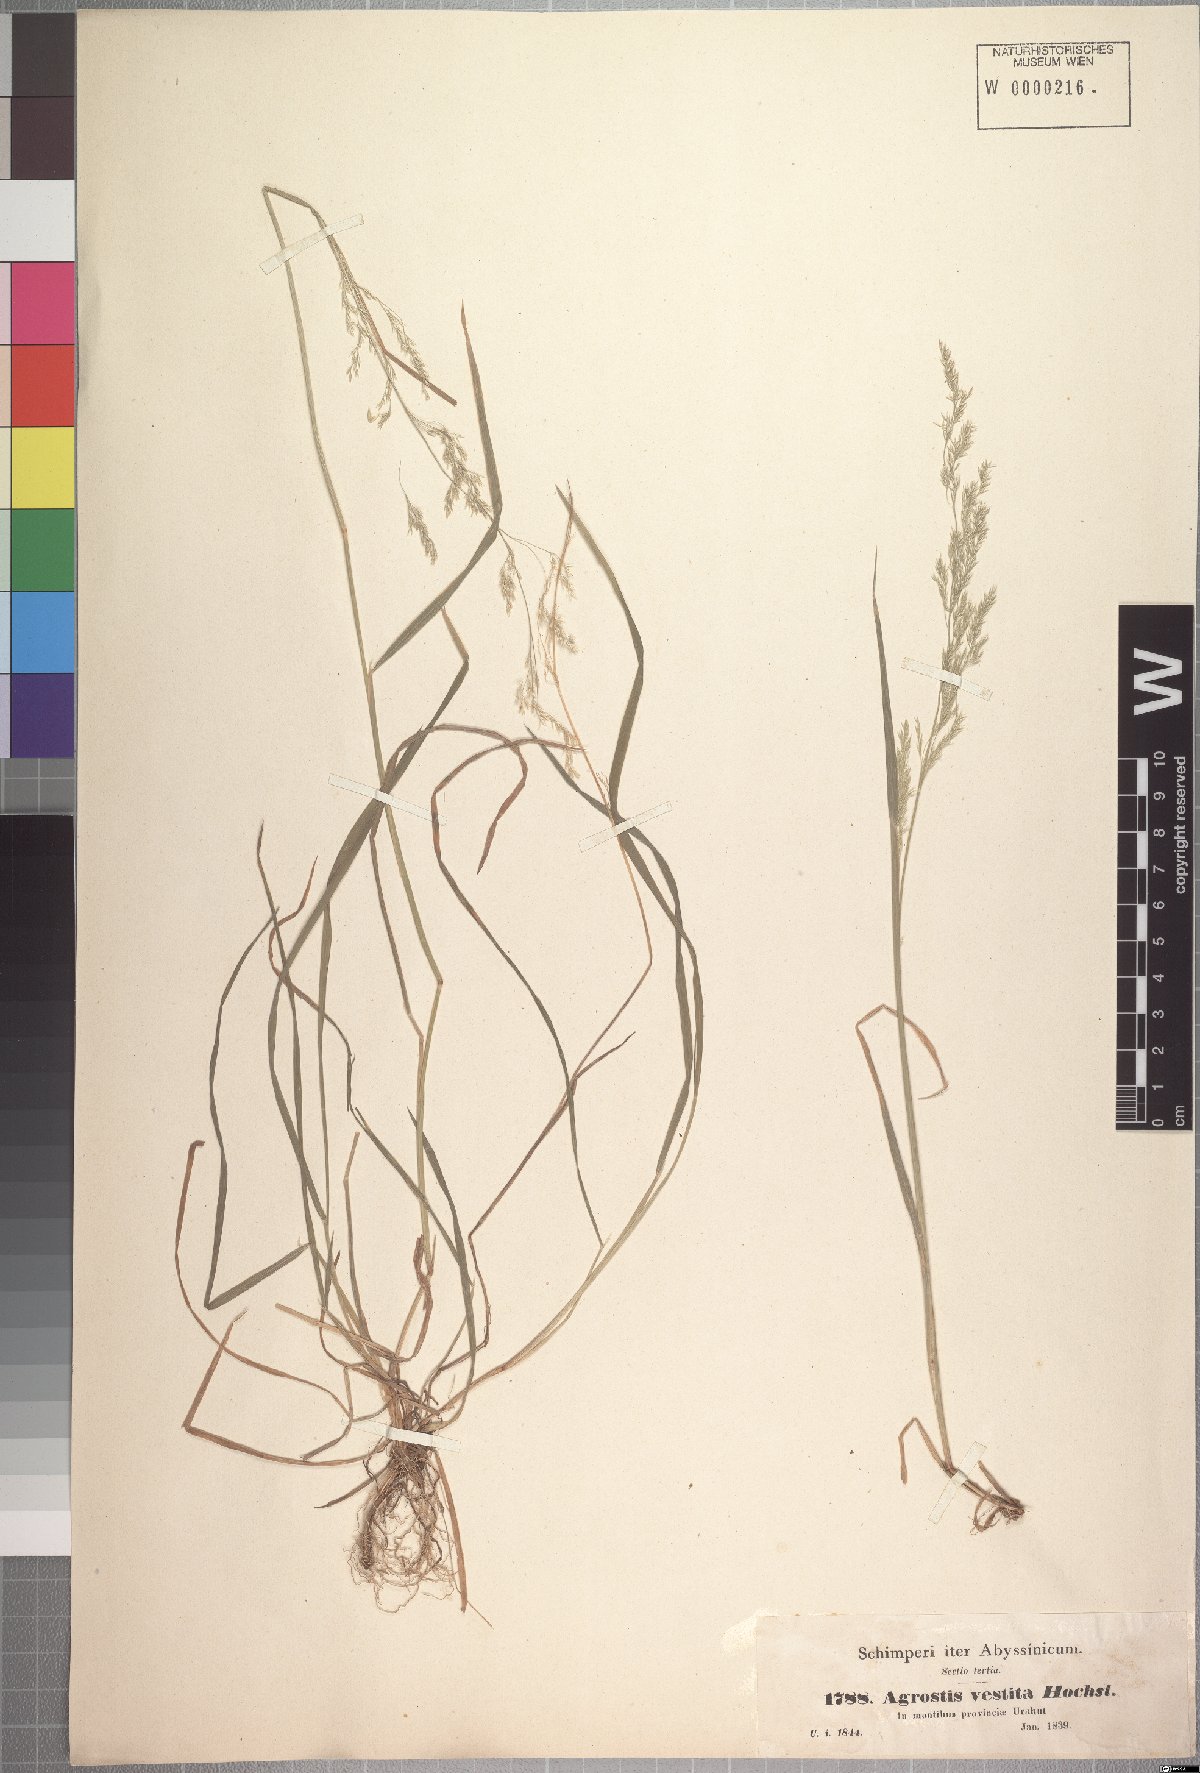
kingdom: Plantae
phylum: Tracheophyta
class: Liliopsida
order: Poales
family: Poaceae
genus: Lachnagrostis
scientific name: Lachnagrostis lachnantha
